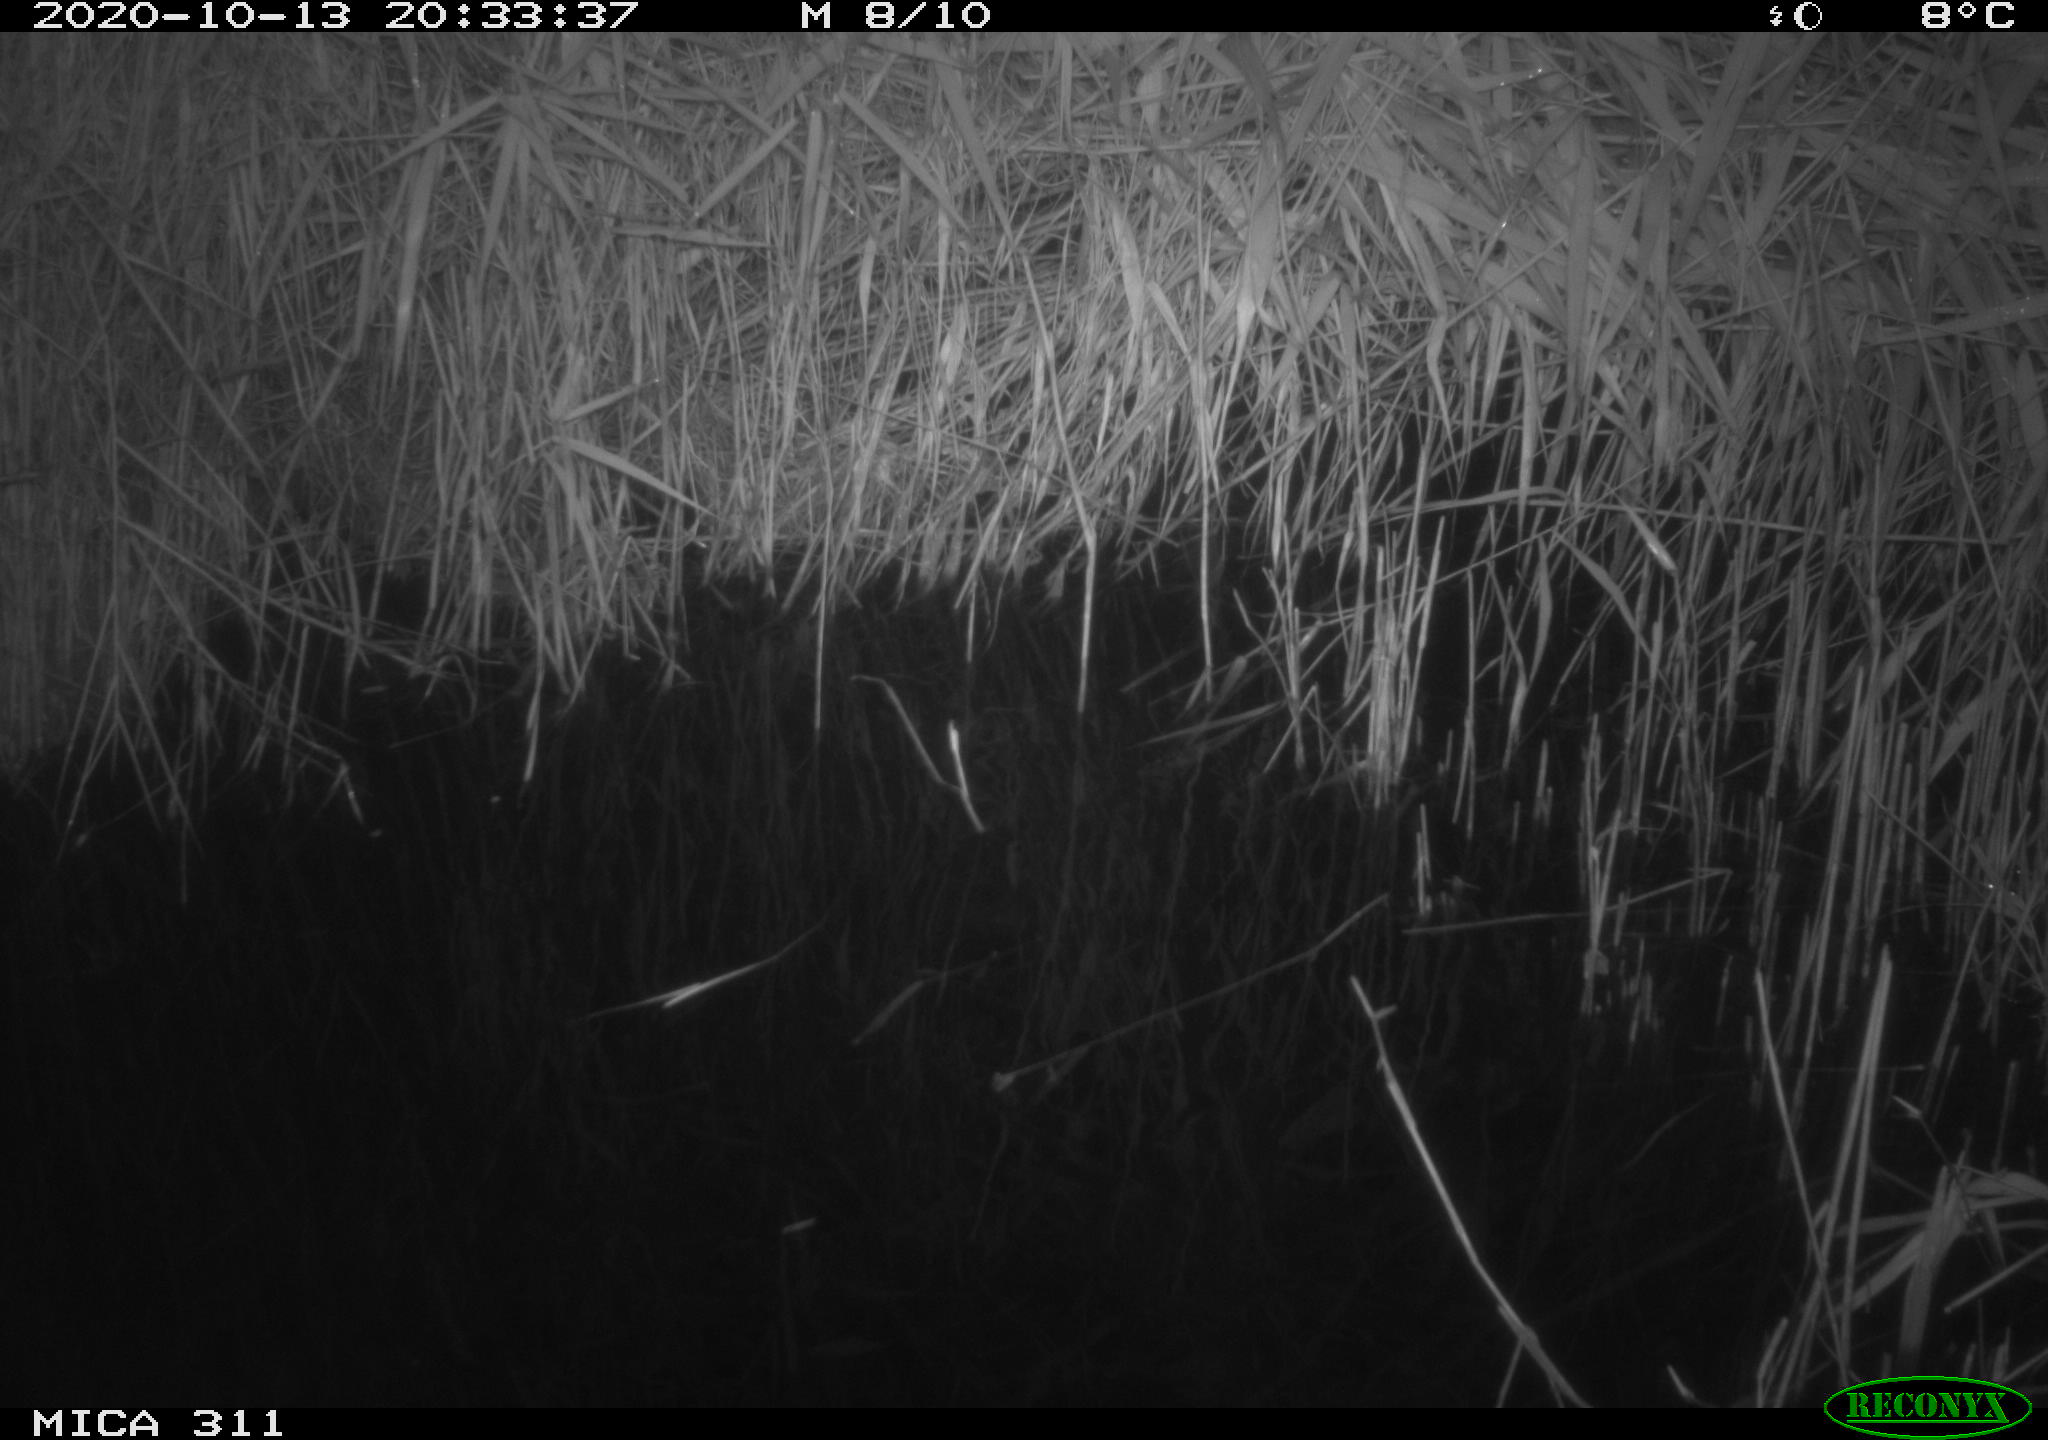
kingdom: Animalia
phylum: Chordata
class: Mammalia
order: Rodentia
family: Muridae
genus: Rattus
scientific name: Rattus norvegicus
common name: Brown rat
